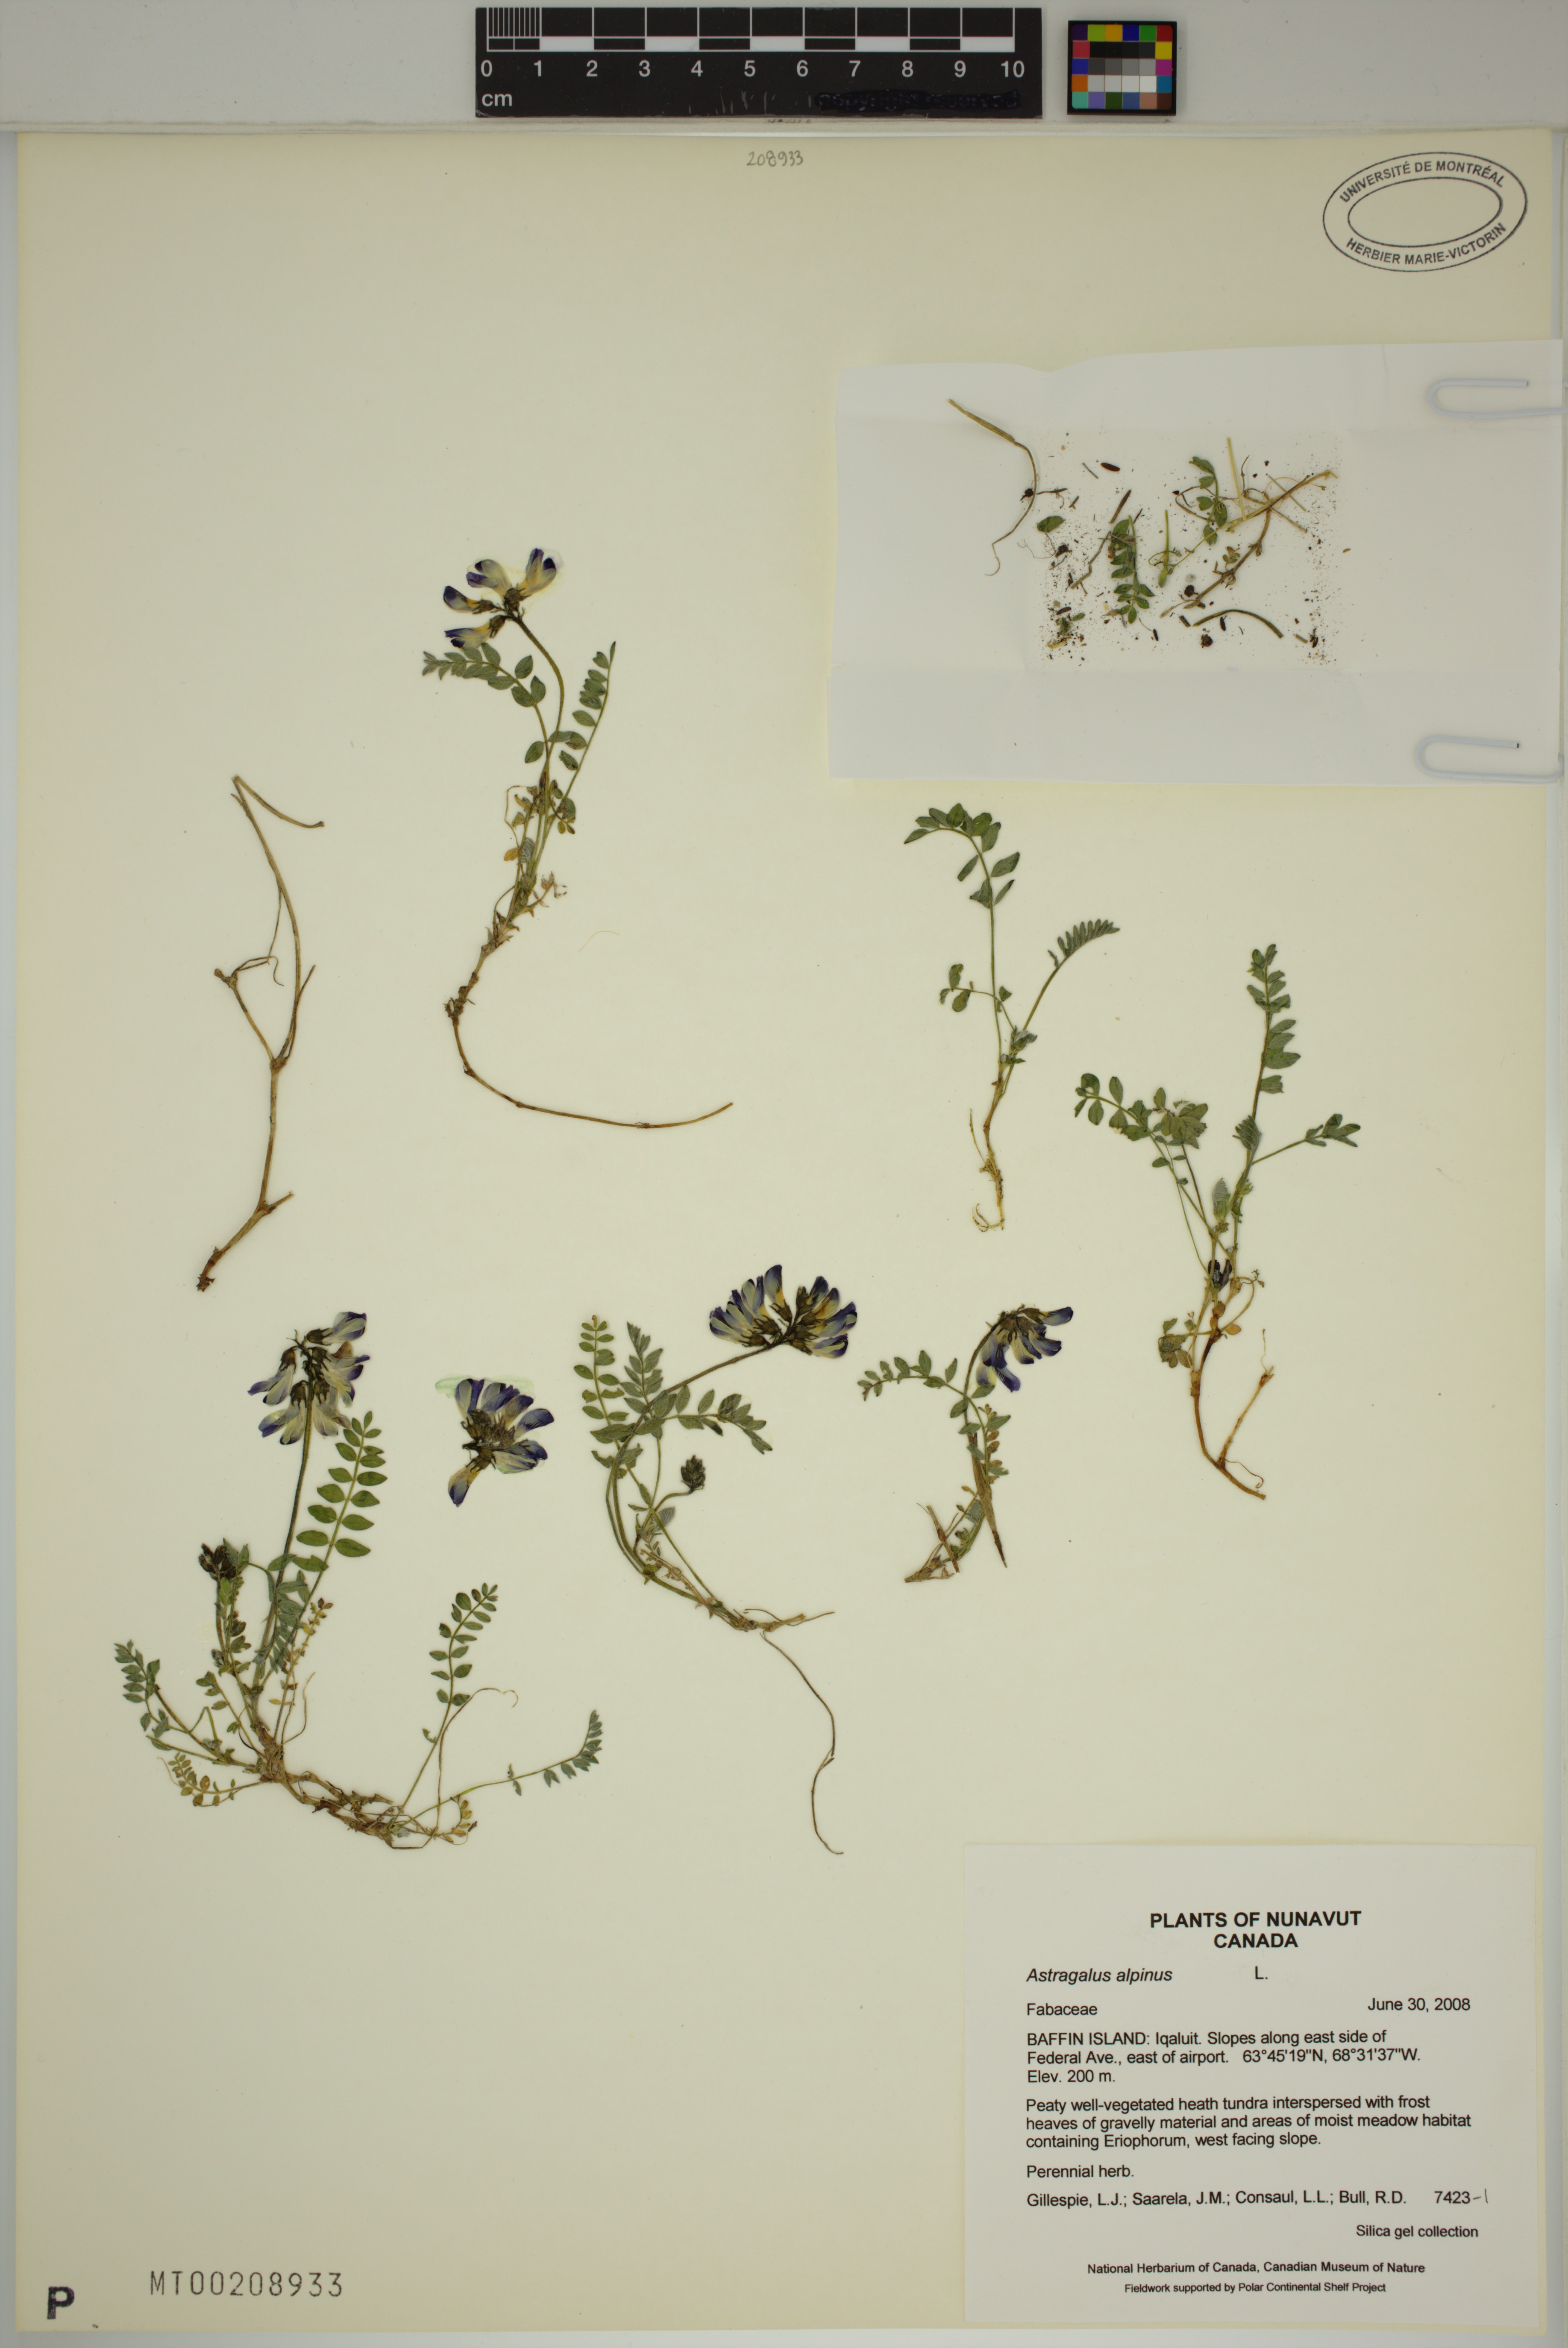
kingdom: Plantae
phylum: Tracheophyta
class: Magnoliopsida
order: Fabales
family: Fabaceae
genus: Astragalus
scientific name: Astragalus alpinus
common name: Alpine milk-vetch
